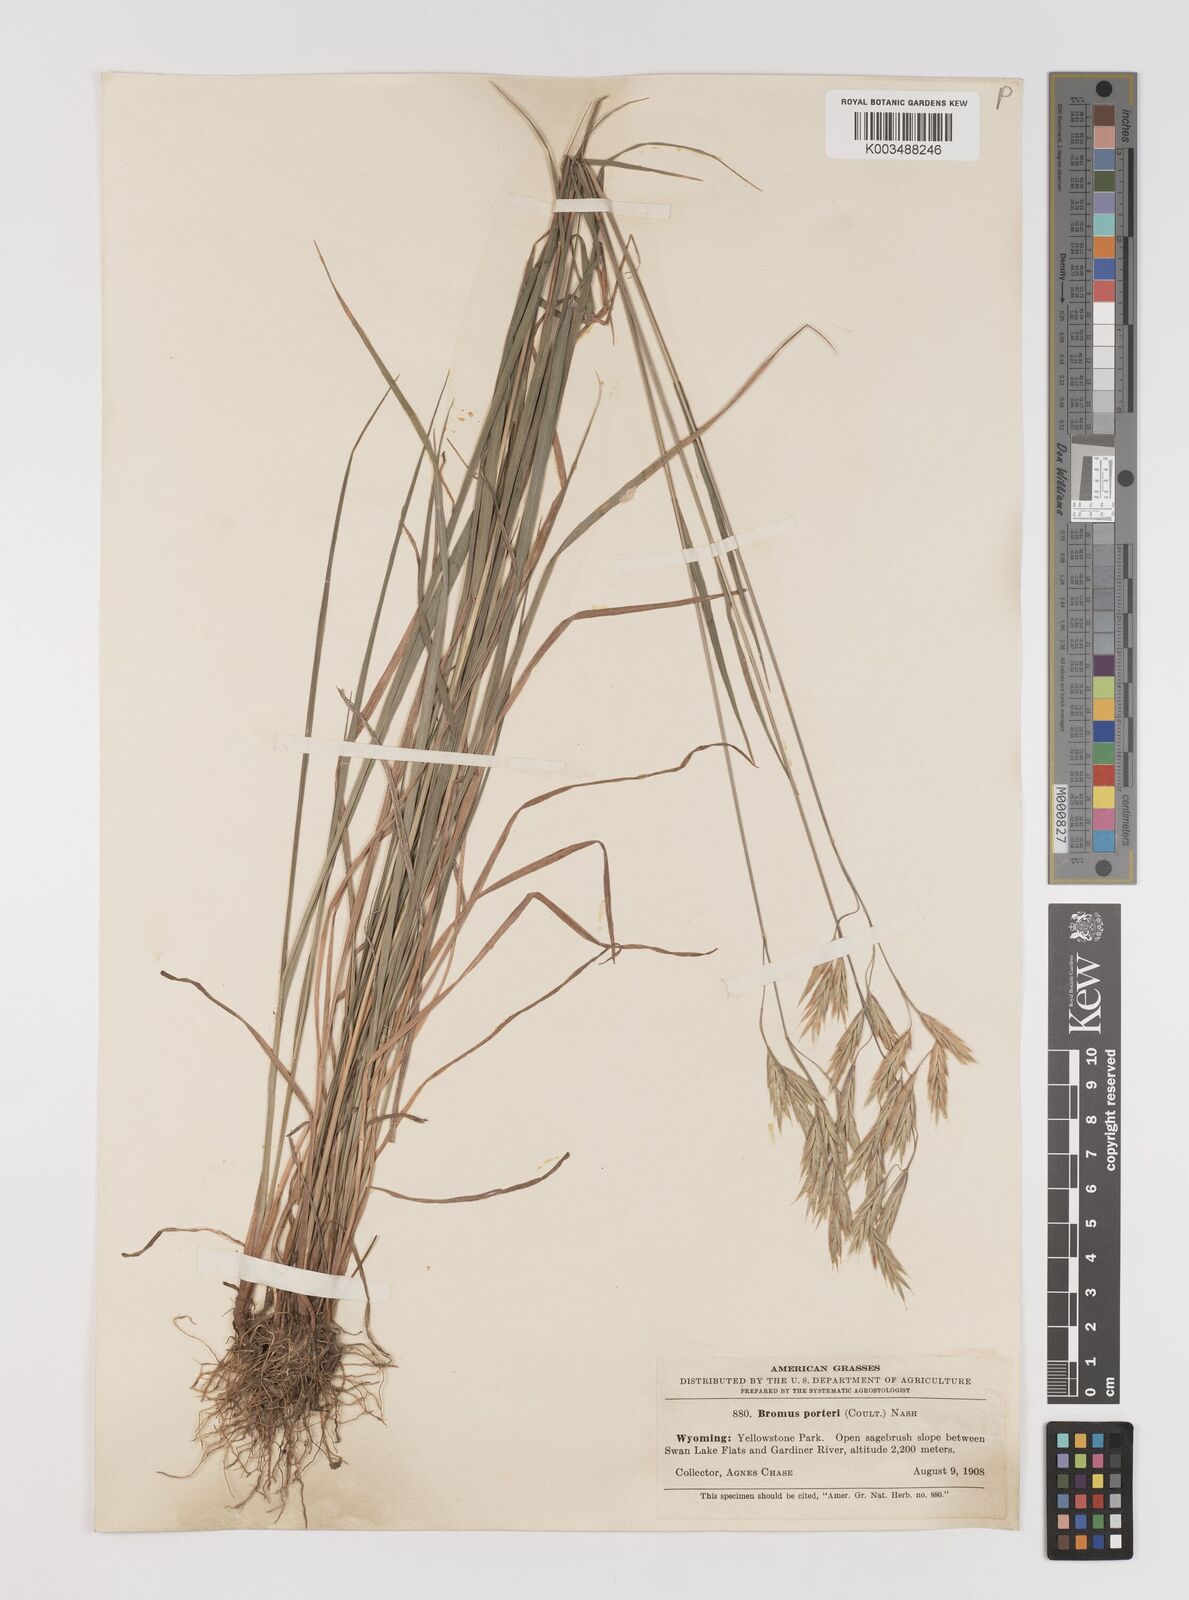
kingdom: Plantae
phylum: Tracheophyta
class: Liliopsida
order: Poales
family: Poaceae
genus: Bromus
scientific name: Bromus porteri
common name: Nodding brome
